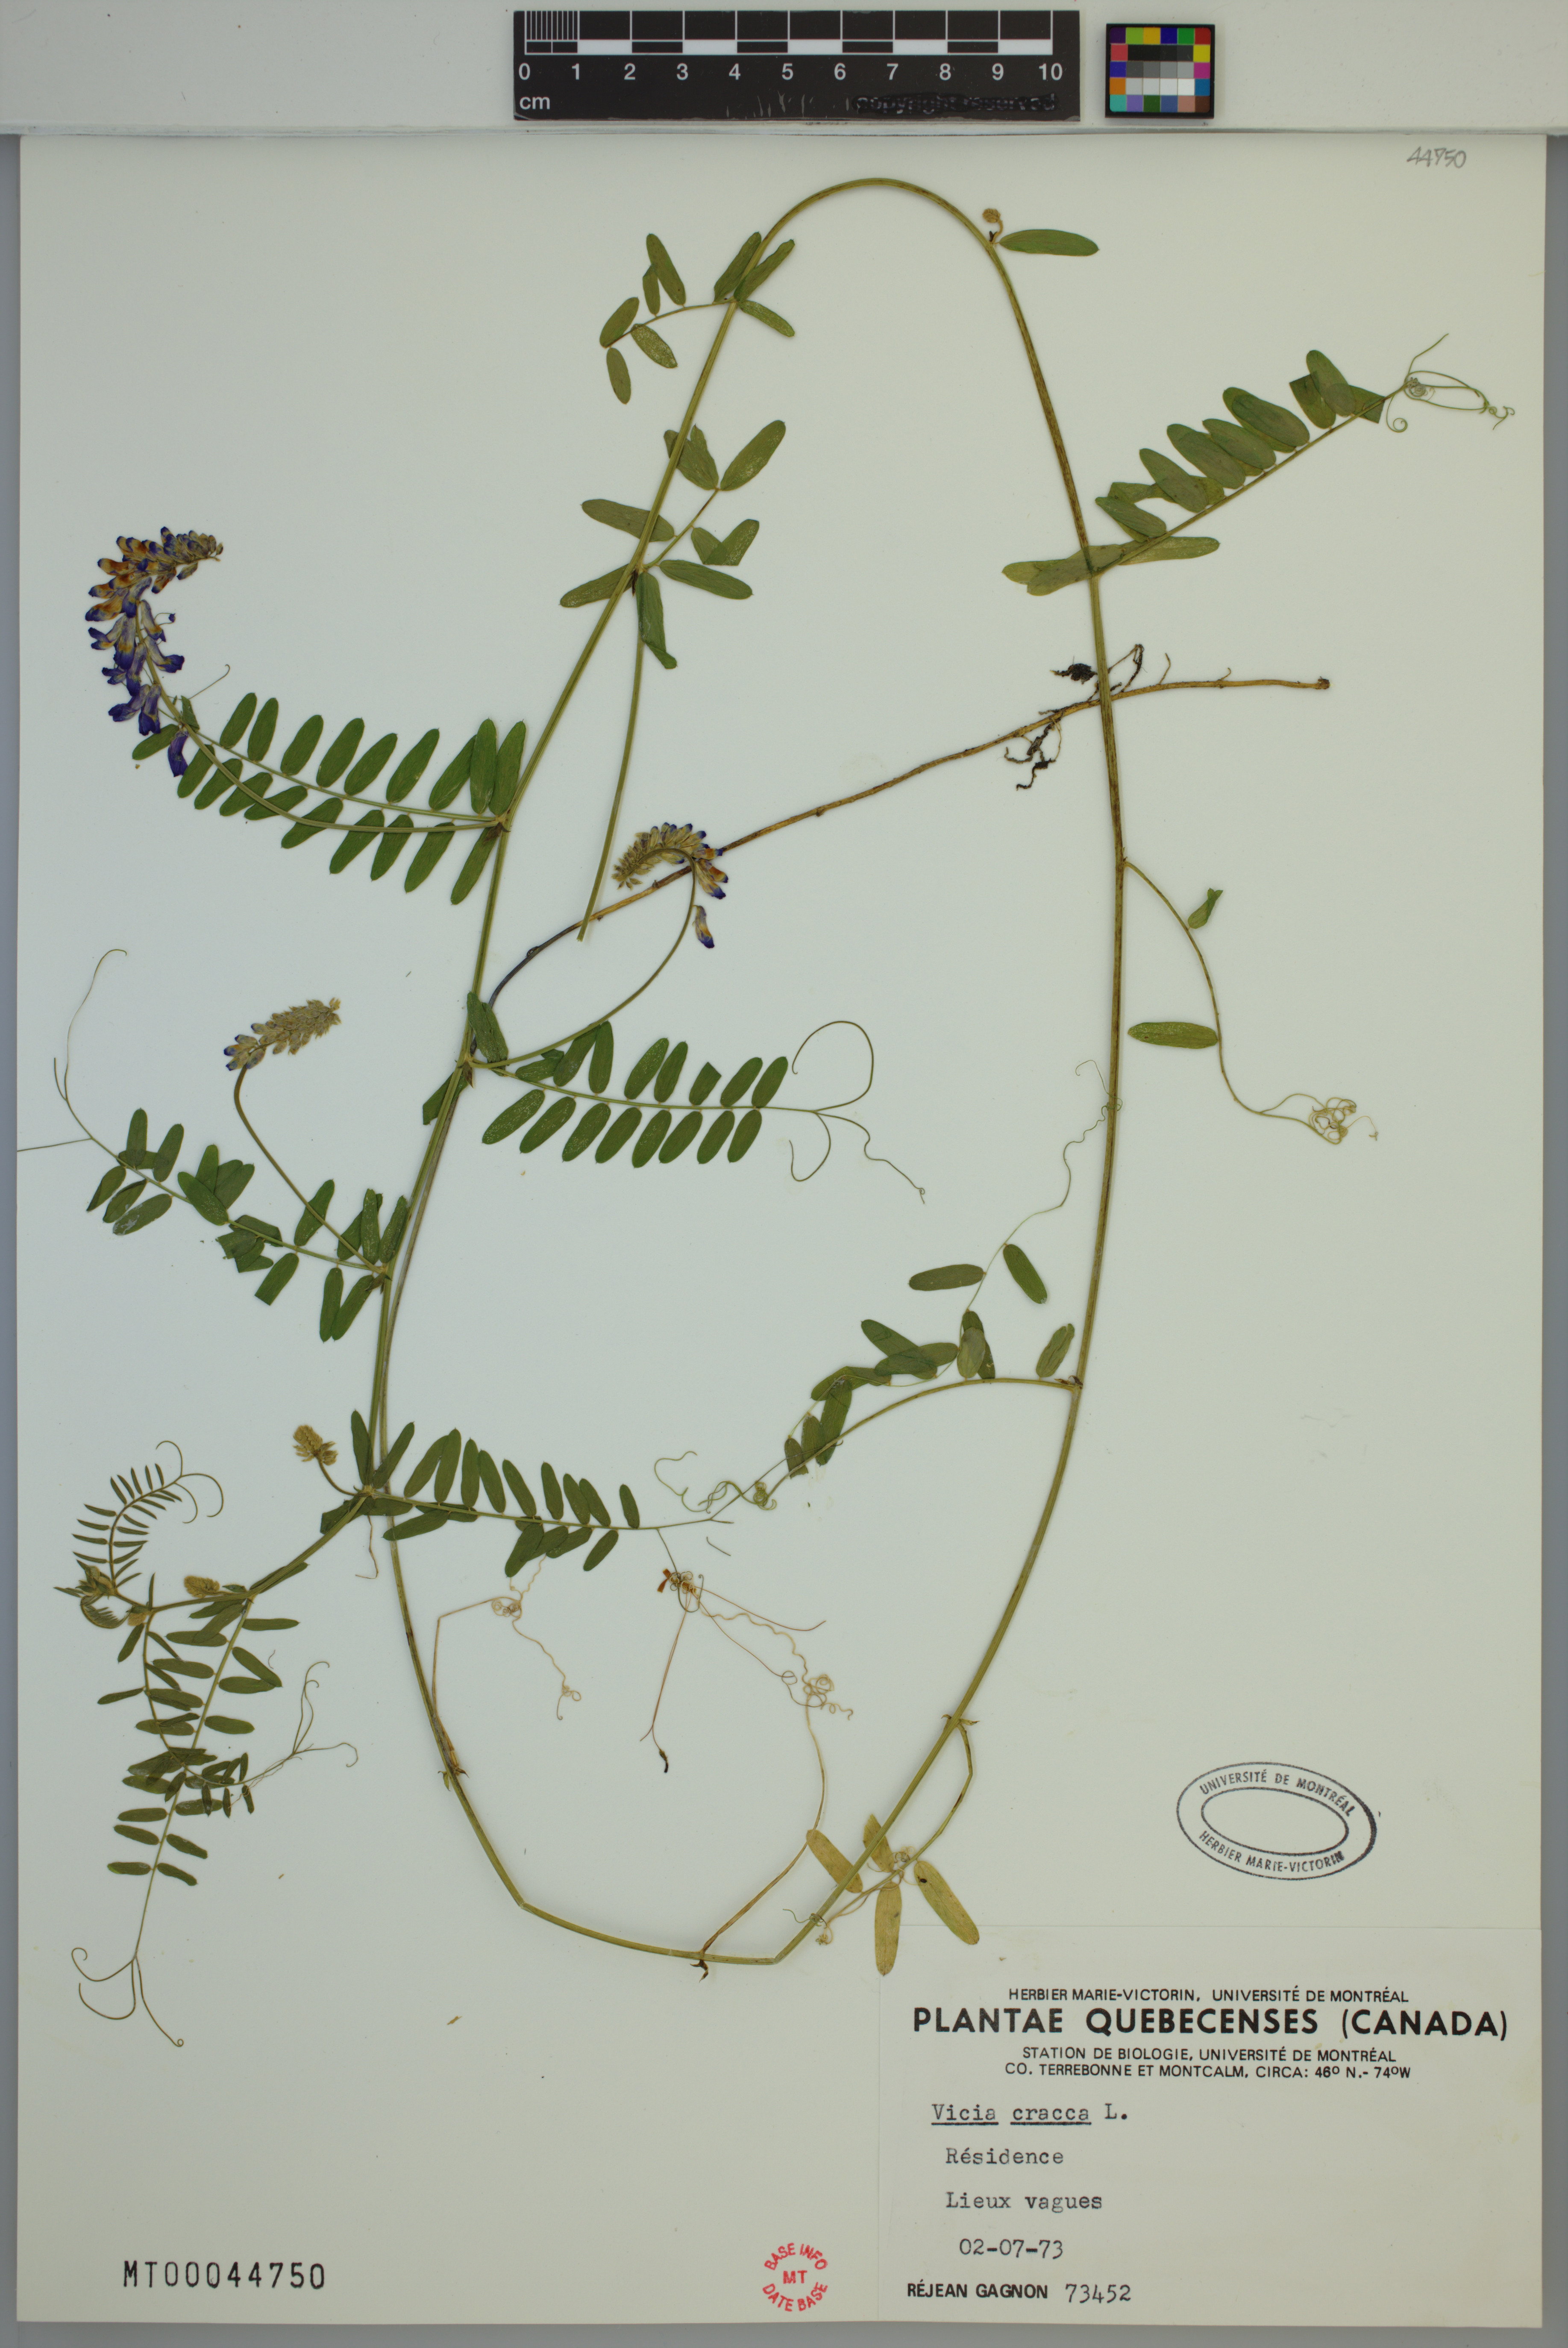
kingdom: Plantae
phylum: Tracheophyta
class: Magnoliopsida
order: Fabales
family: Fabaceae
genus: Vicia
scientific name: Vicia cracca
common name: Bird vetch
